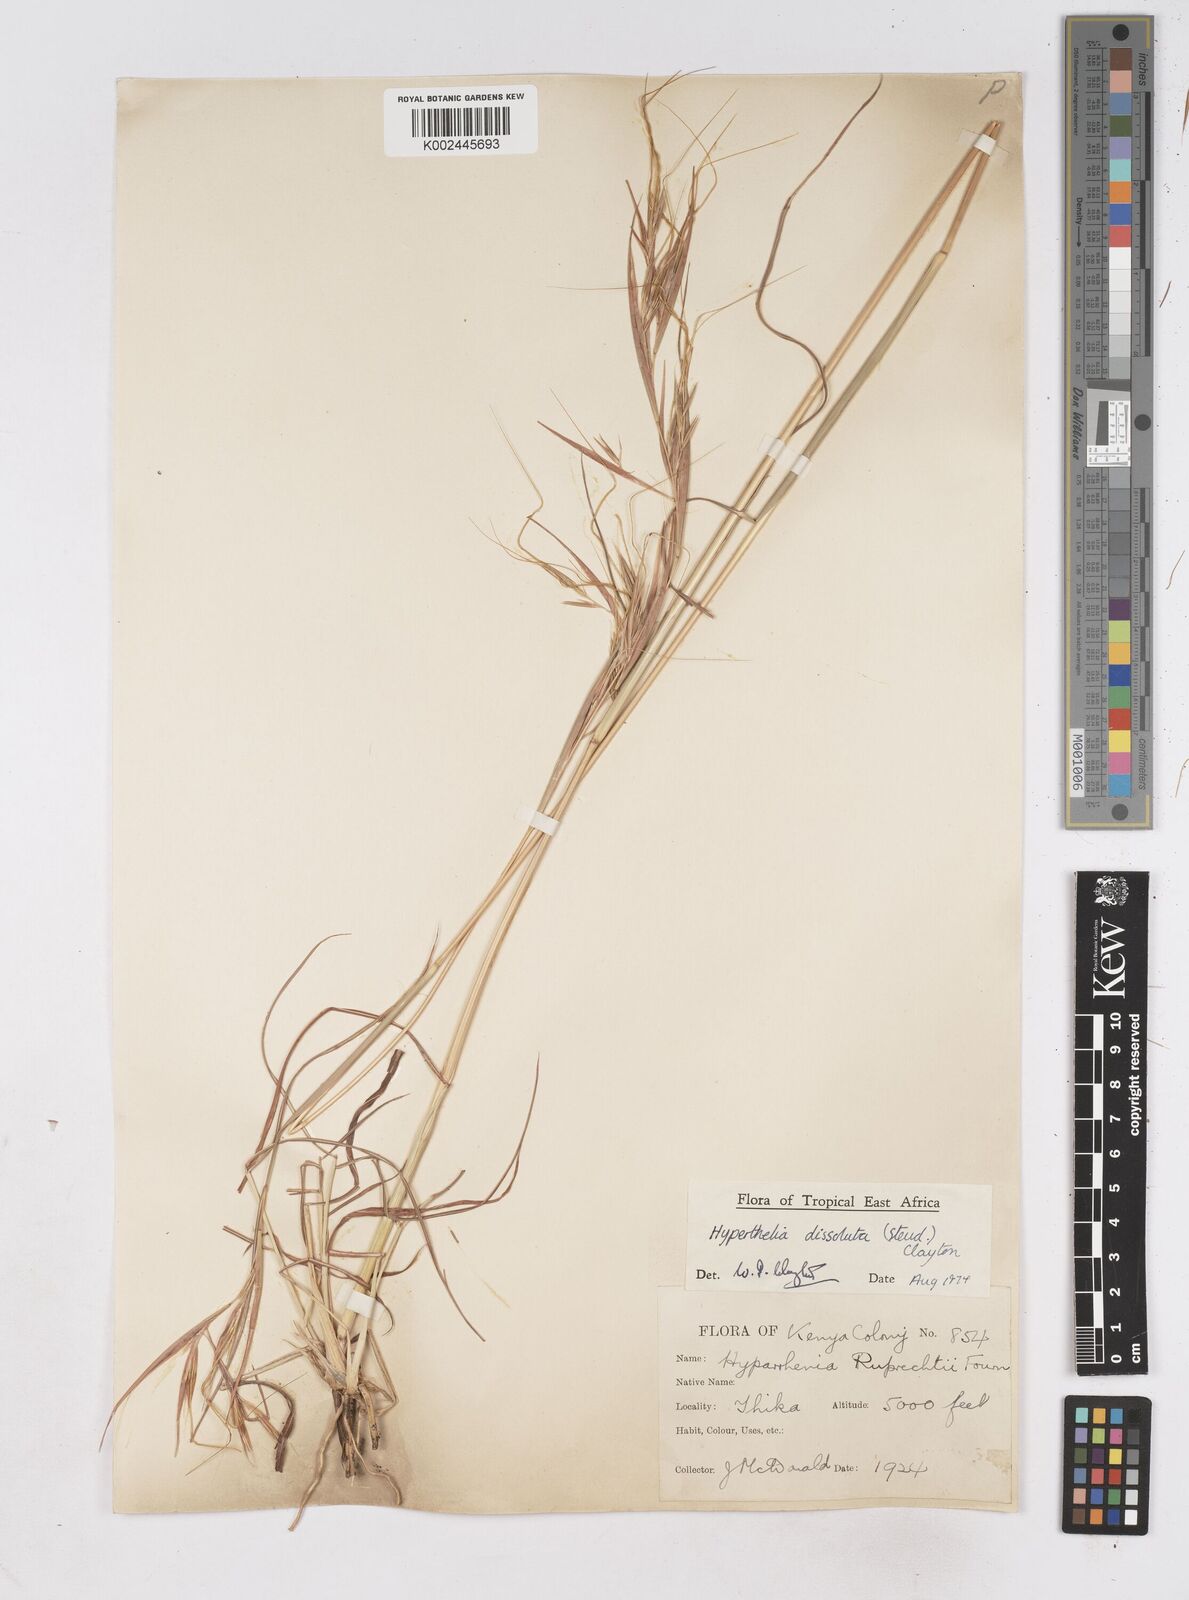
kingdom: Plantae
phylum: Tracheophyta
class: Liliopsida
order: Poales
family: Poaceae
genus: Hyperthelia
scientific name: Hyperthelia dissoluta
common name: Yellow thatching grass
